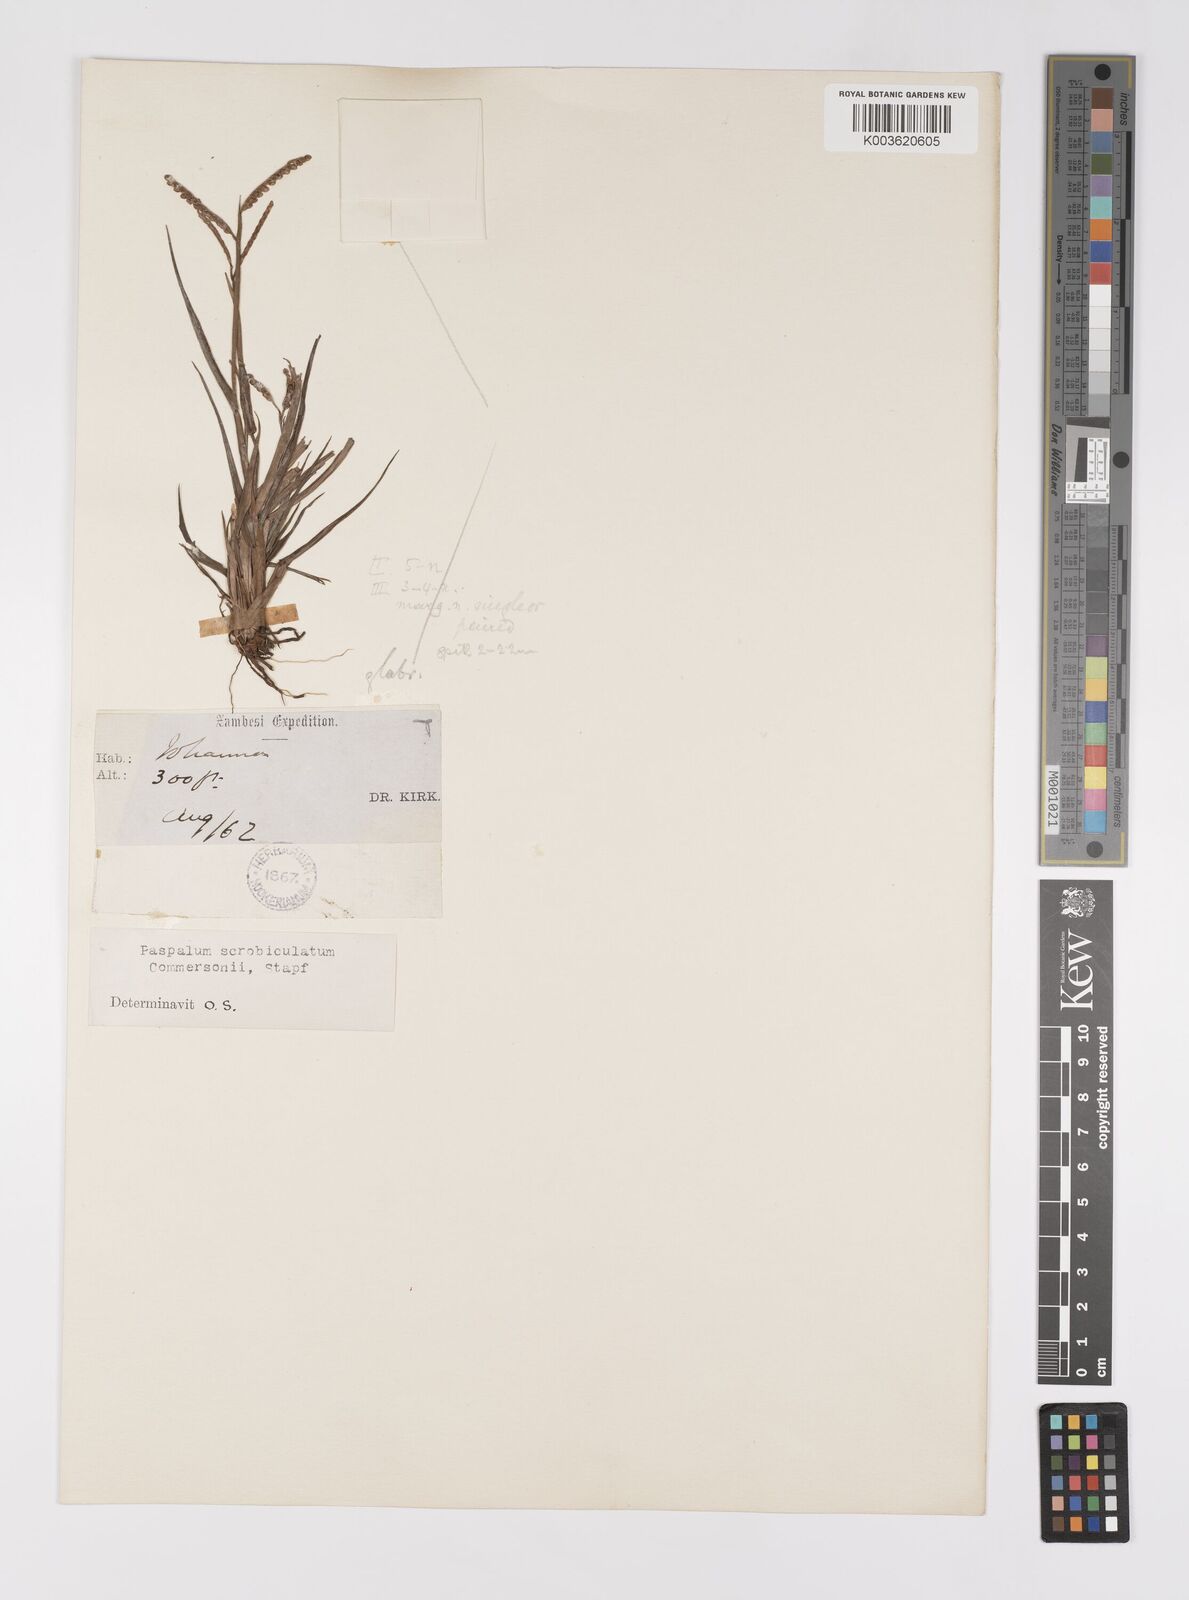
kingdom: Plantae
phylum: Tracheophyta
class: Liliopsida
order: Poales
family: Poaceae
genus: Paspalum
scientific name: Paspalum scrobiculatum
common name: Kodo millet
